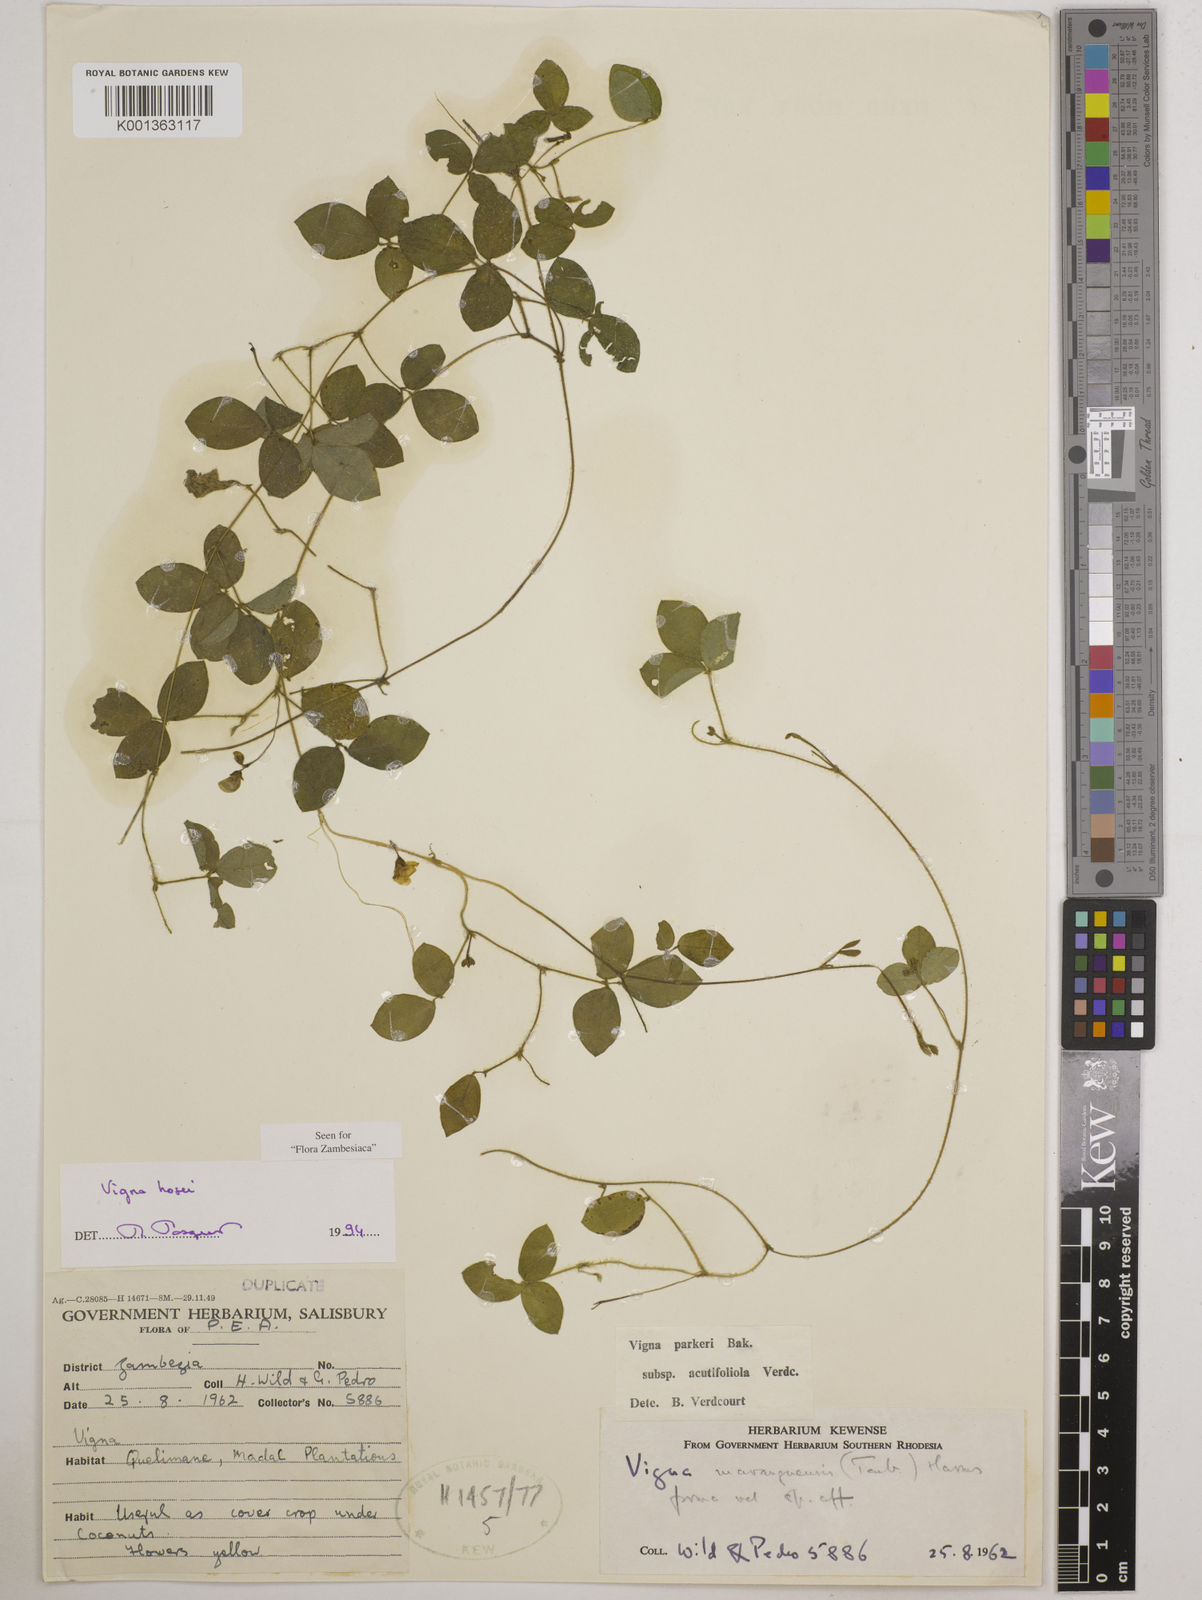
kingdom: Plantae
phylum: Tracheophyta
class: Magnoliopsida
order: Fabales
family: Fabaceae
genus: Vigna
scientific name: Vigna hosei
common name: Sarawak-bean
